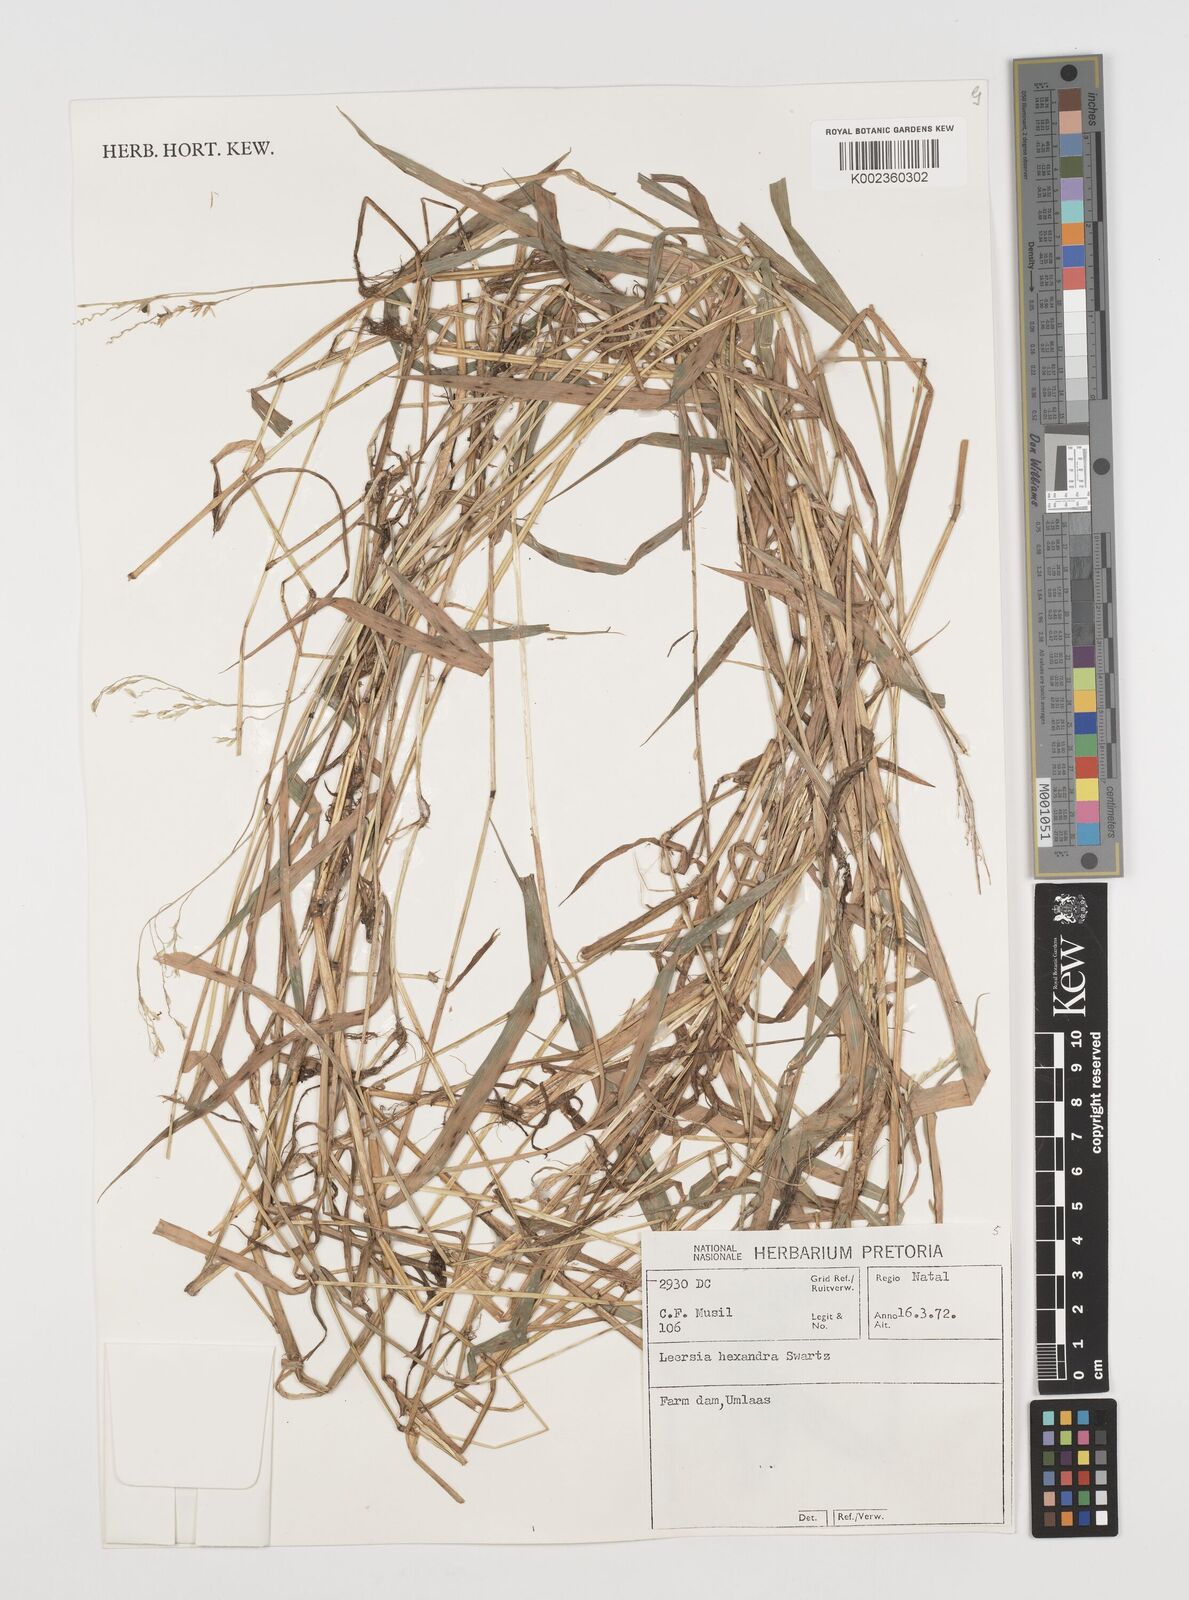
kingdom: Plantae
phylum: Tracheophyta
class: Liliopsida
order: Poales
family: Poaceae
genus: Leersia
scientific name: Leersia hexandra
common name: Southern cut grass
